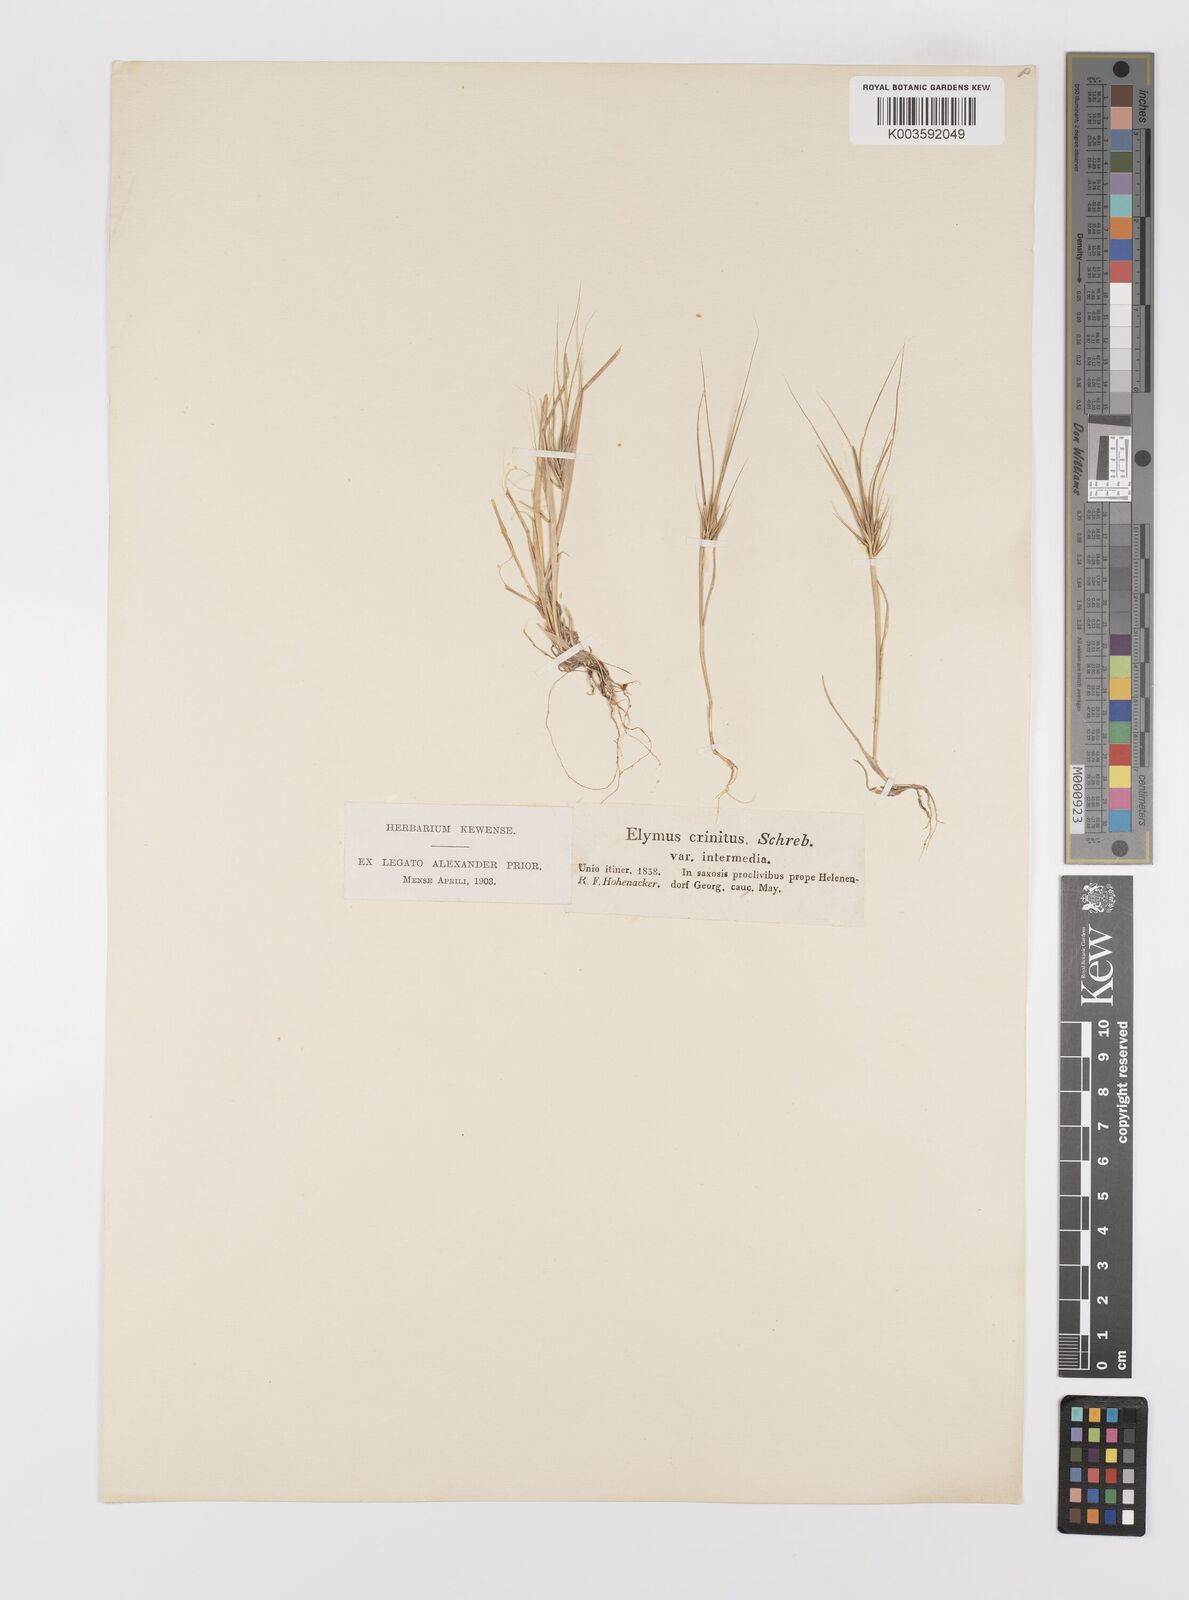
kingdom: Plantae
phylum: Tracheophyta
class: Liliopsida
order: Poales
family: Poaceae
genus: Taeniatherum
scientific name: Taeniatherum caput-medusae
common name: Medusahead
